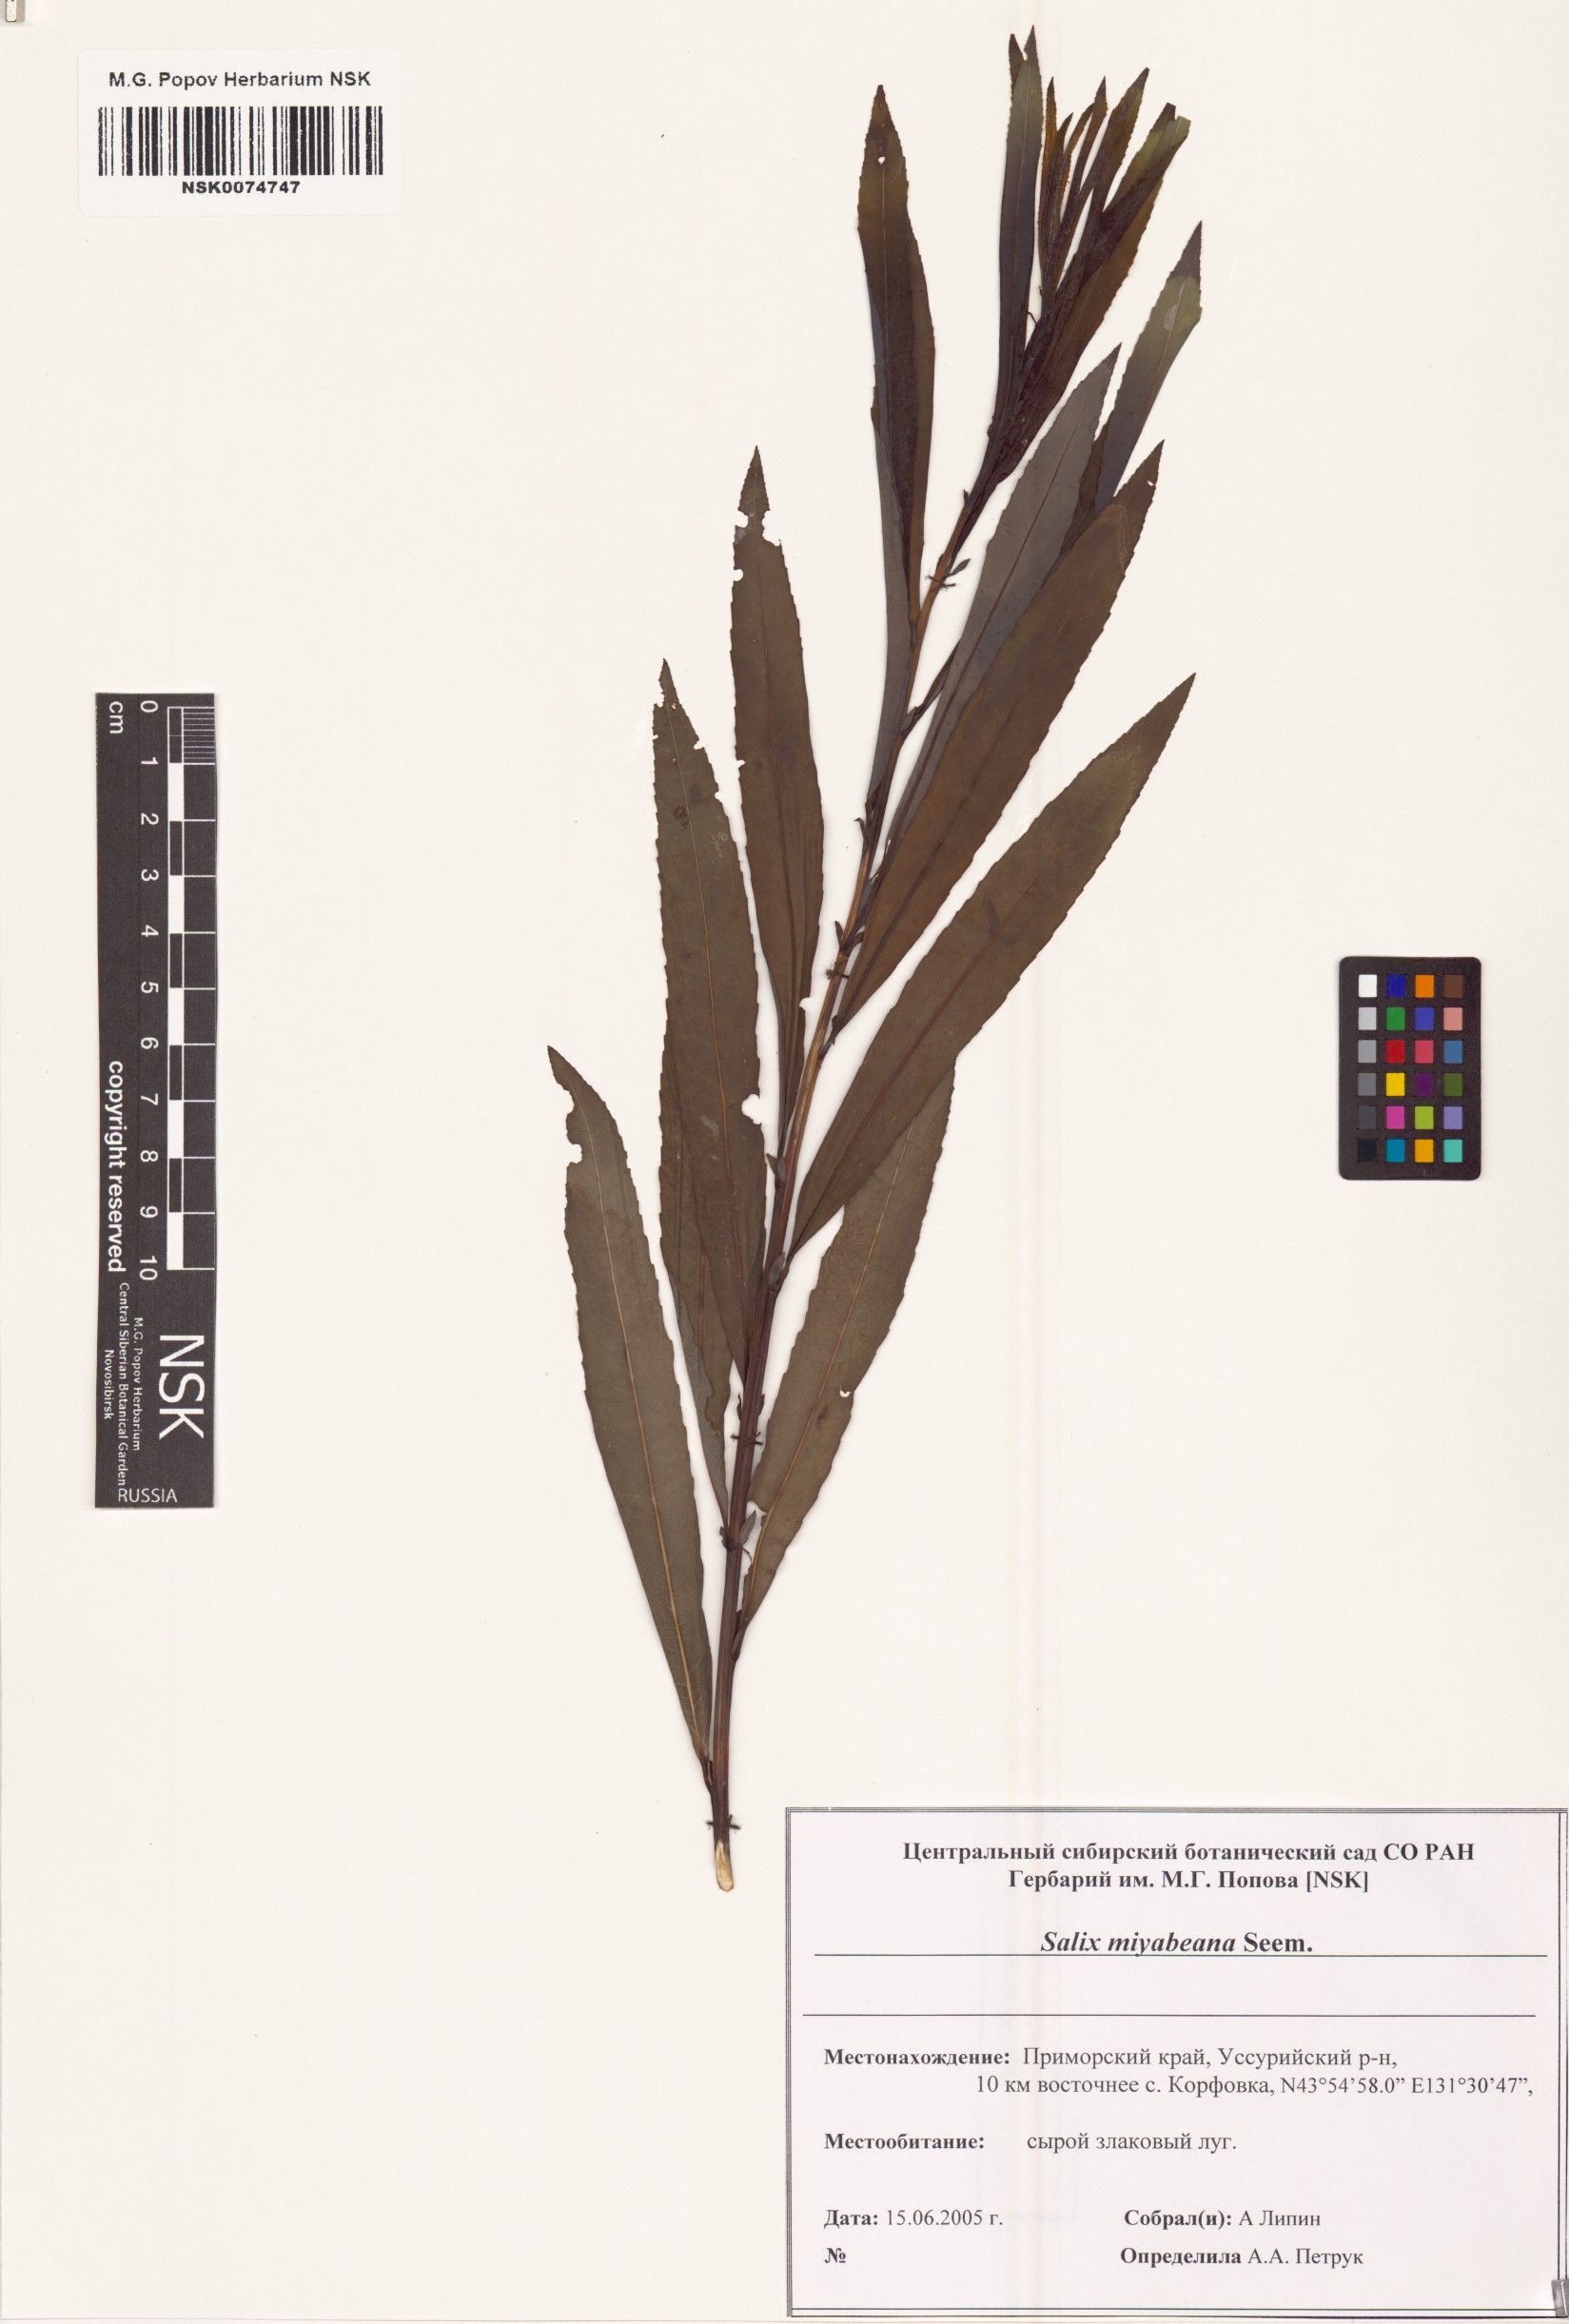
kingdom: Plantae
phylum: Tracheophyta
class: Magnoliopsida
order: Malpighiales
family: Salicaceae
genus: Salix
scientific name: Salix miyabeana
